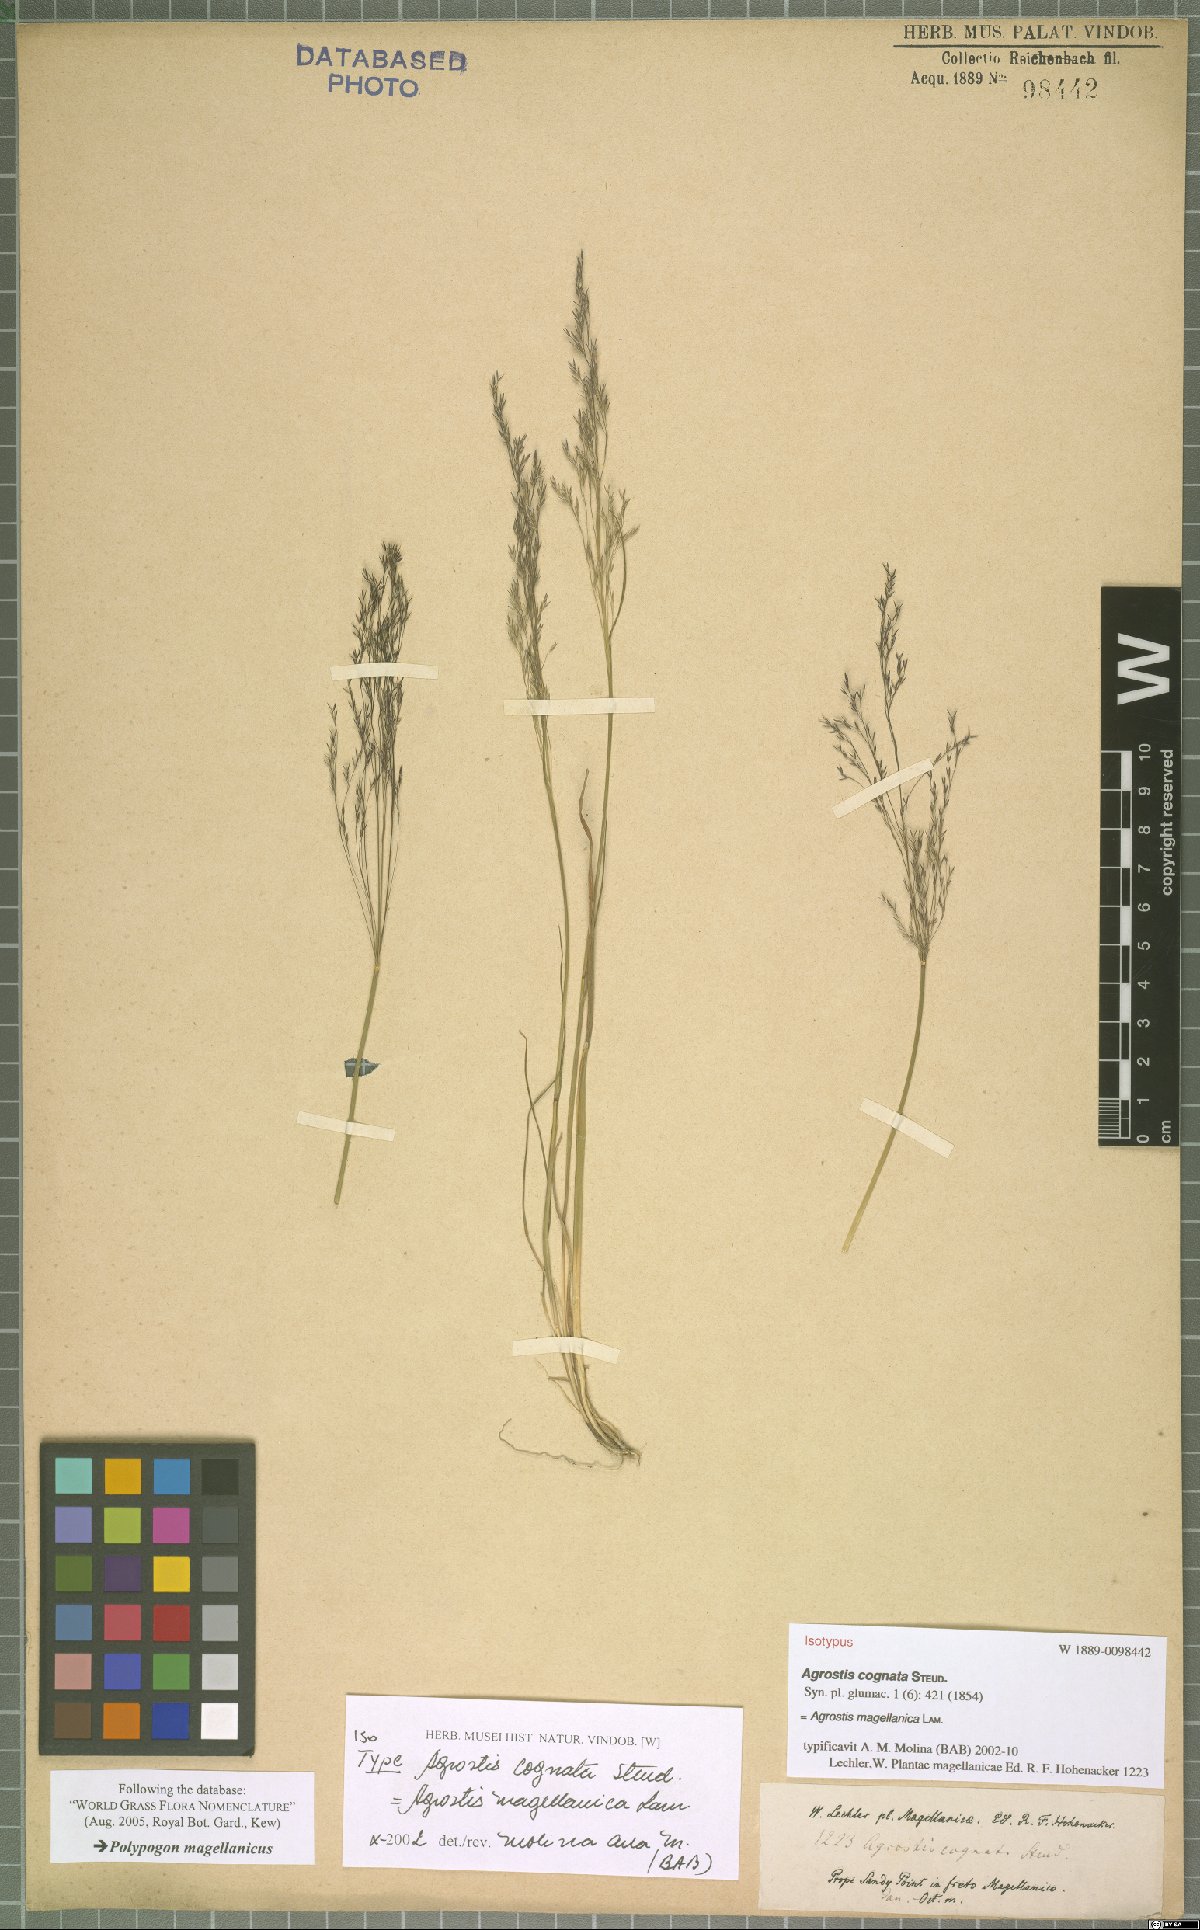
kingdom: Plantae
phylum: Tracheophyta
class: Liliopsida
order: Poales
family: Poaceae
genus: Agrostis
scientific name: Agrostis leptotricha
